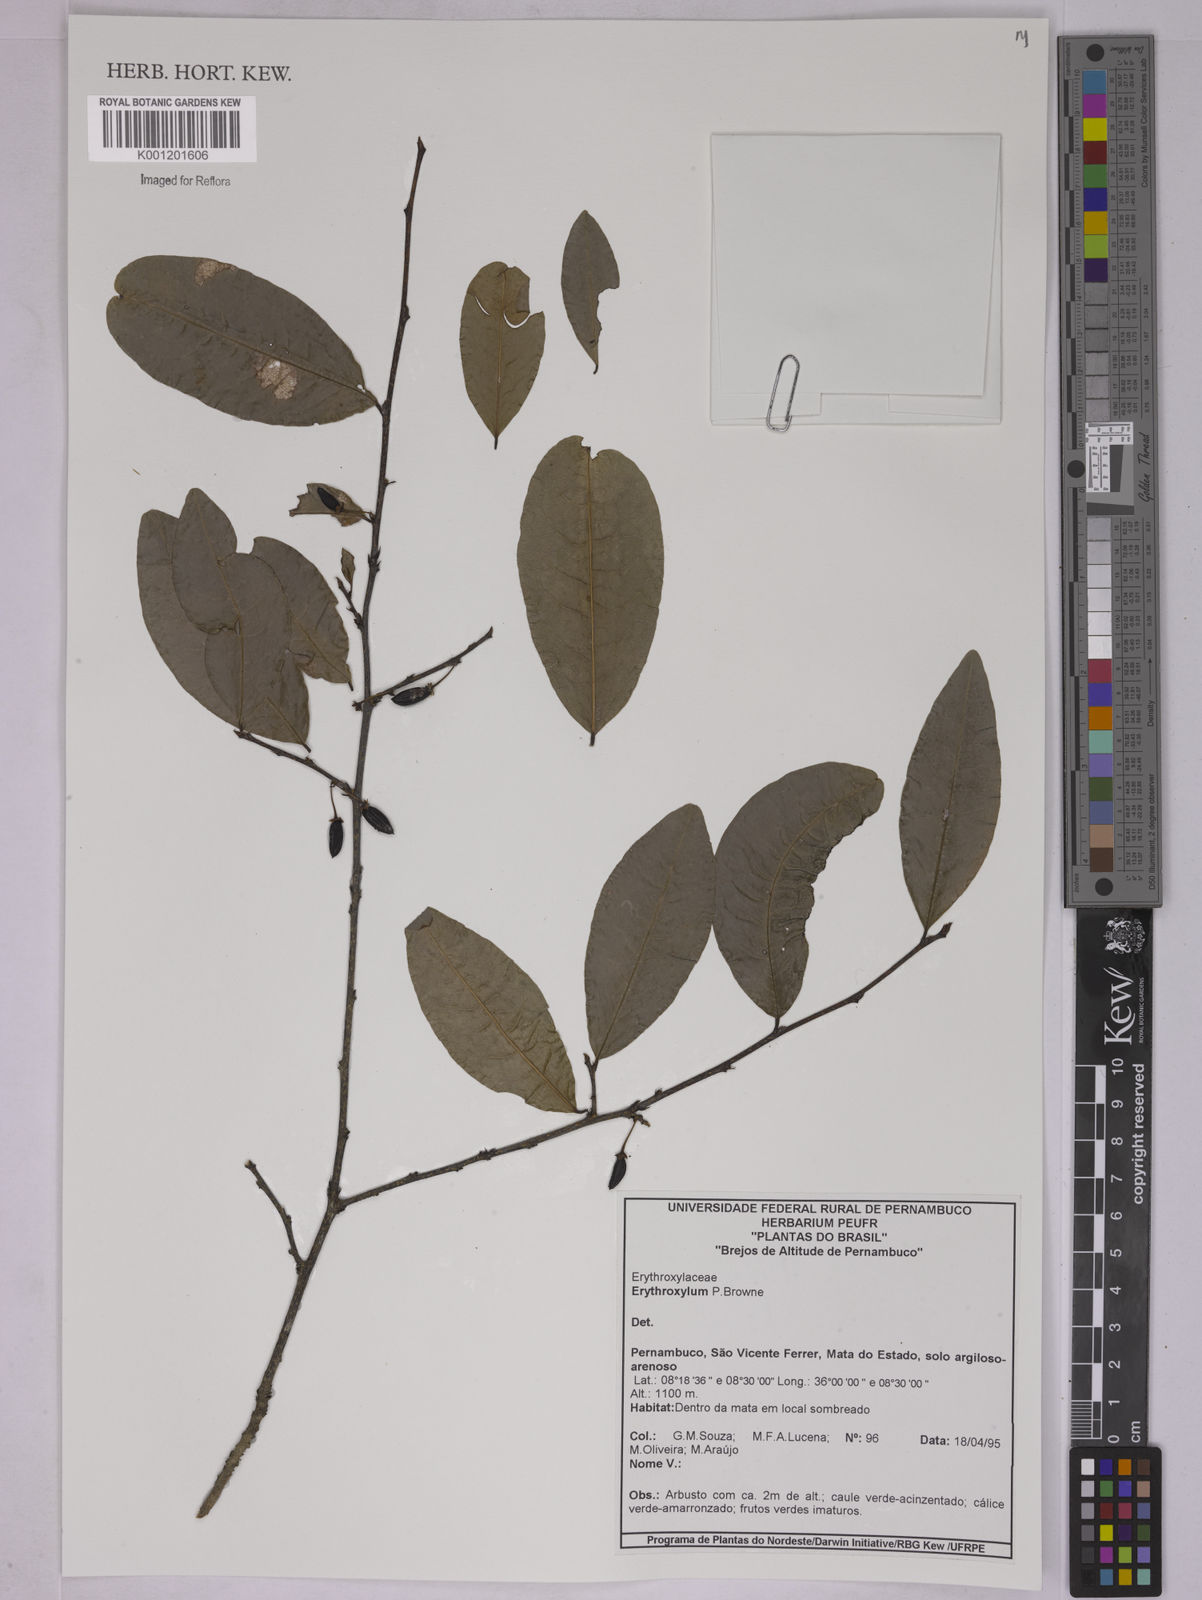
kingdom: Plantae
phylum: Tracheophyta
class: Magnoliopsida
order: Malpighiales
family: Erythroxylaceae
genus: Erythroxylum
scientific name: Erythroxylum
